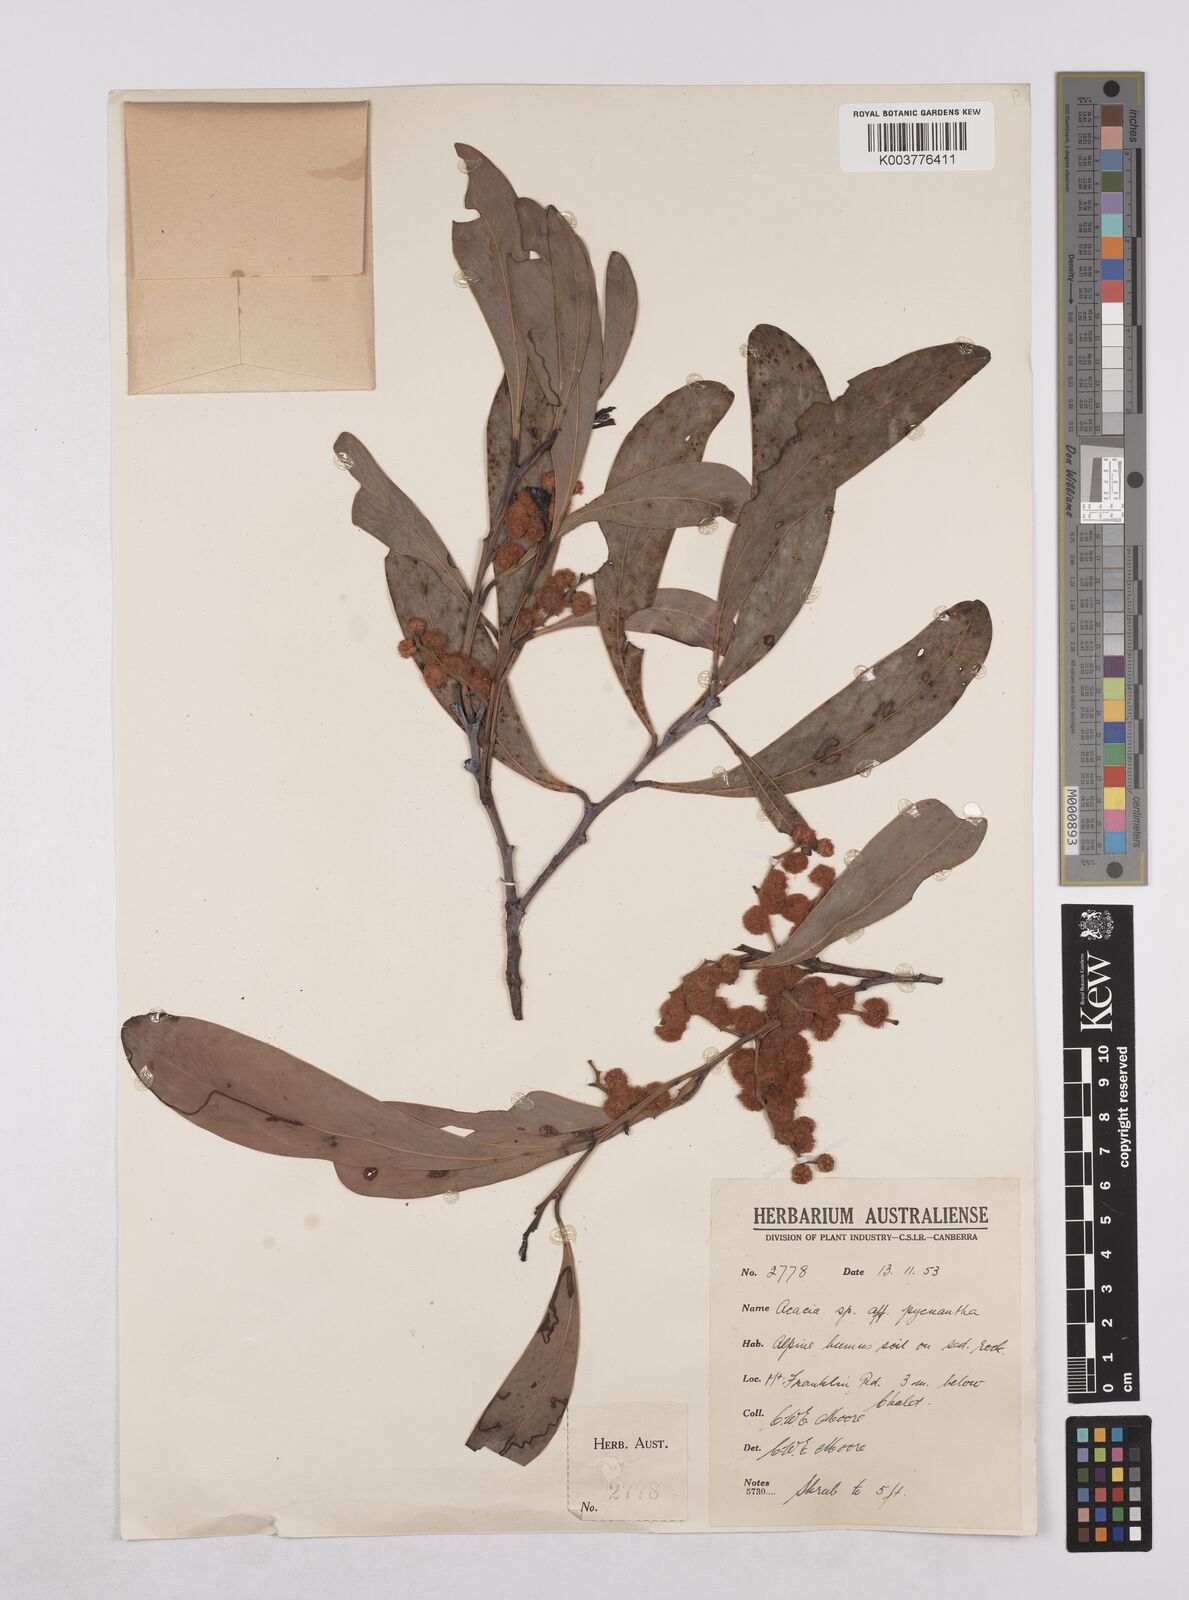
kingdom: Plantae
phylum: Tracheophyta
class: Magnoliopsida
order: Fabales
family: Fabaceae
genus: Acacia
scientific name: Acacia pycnantha
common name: Golden wattle
